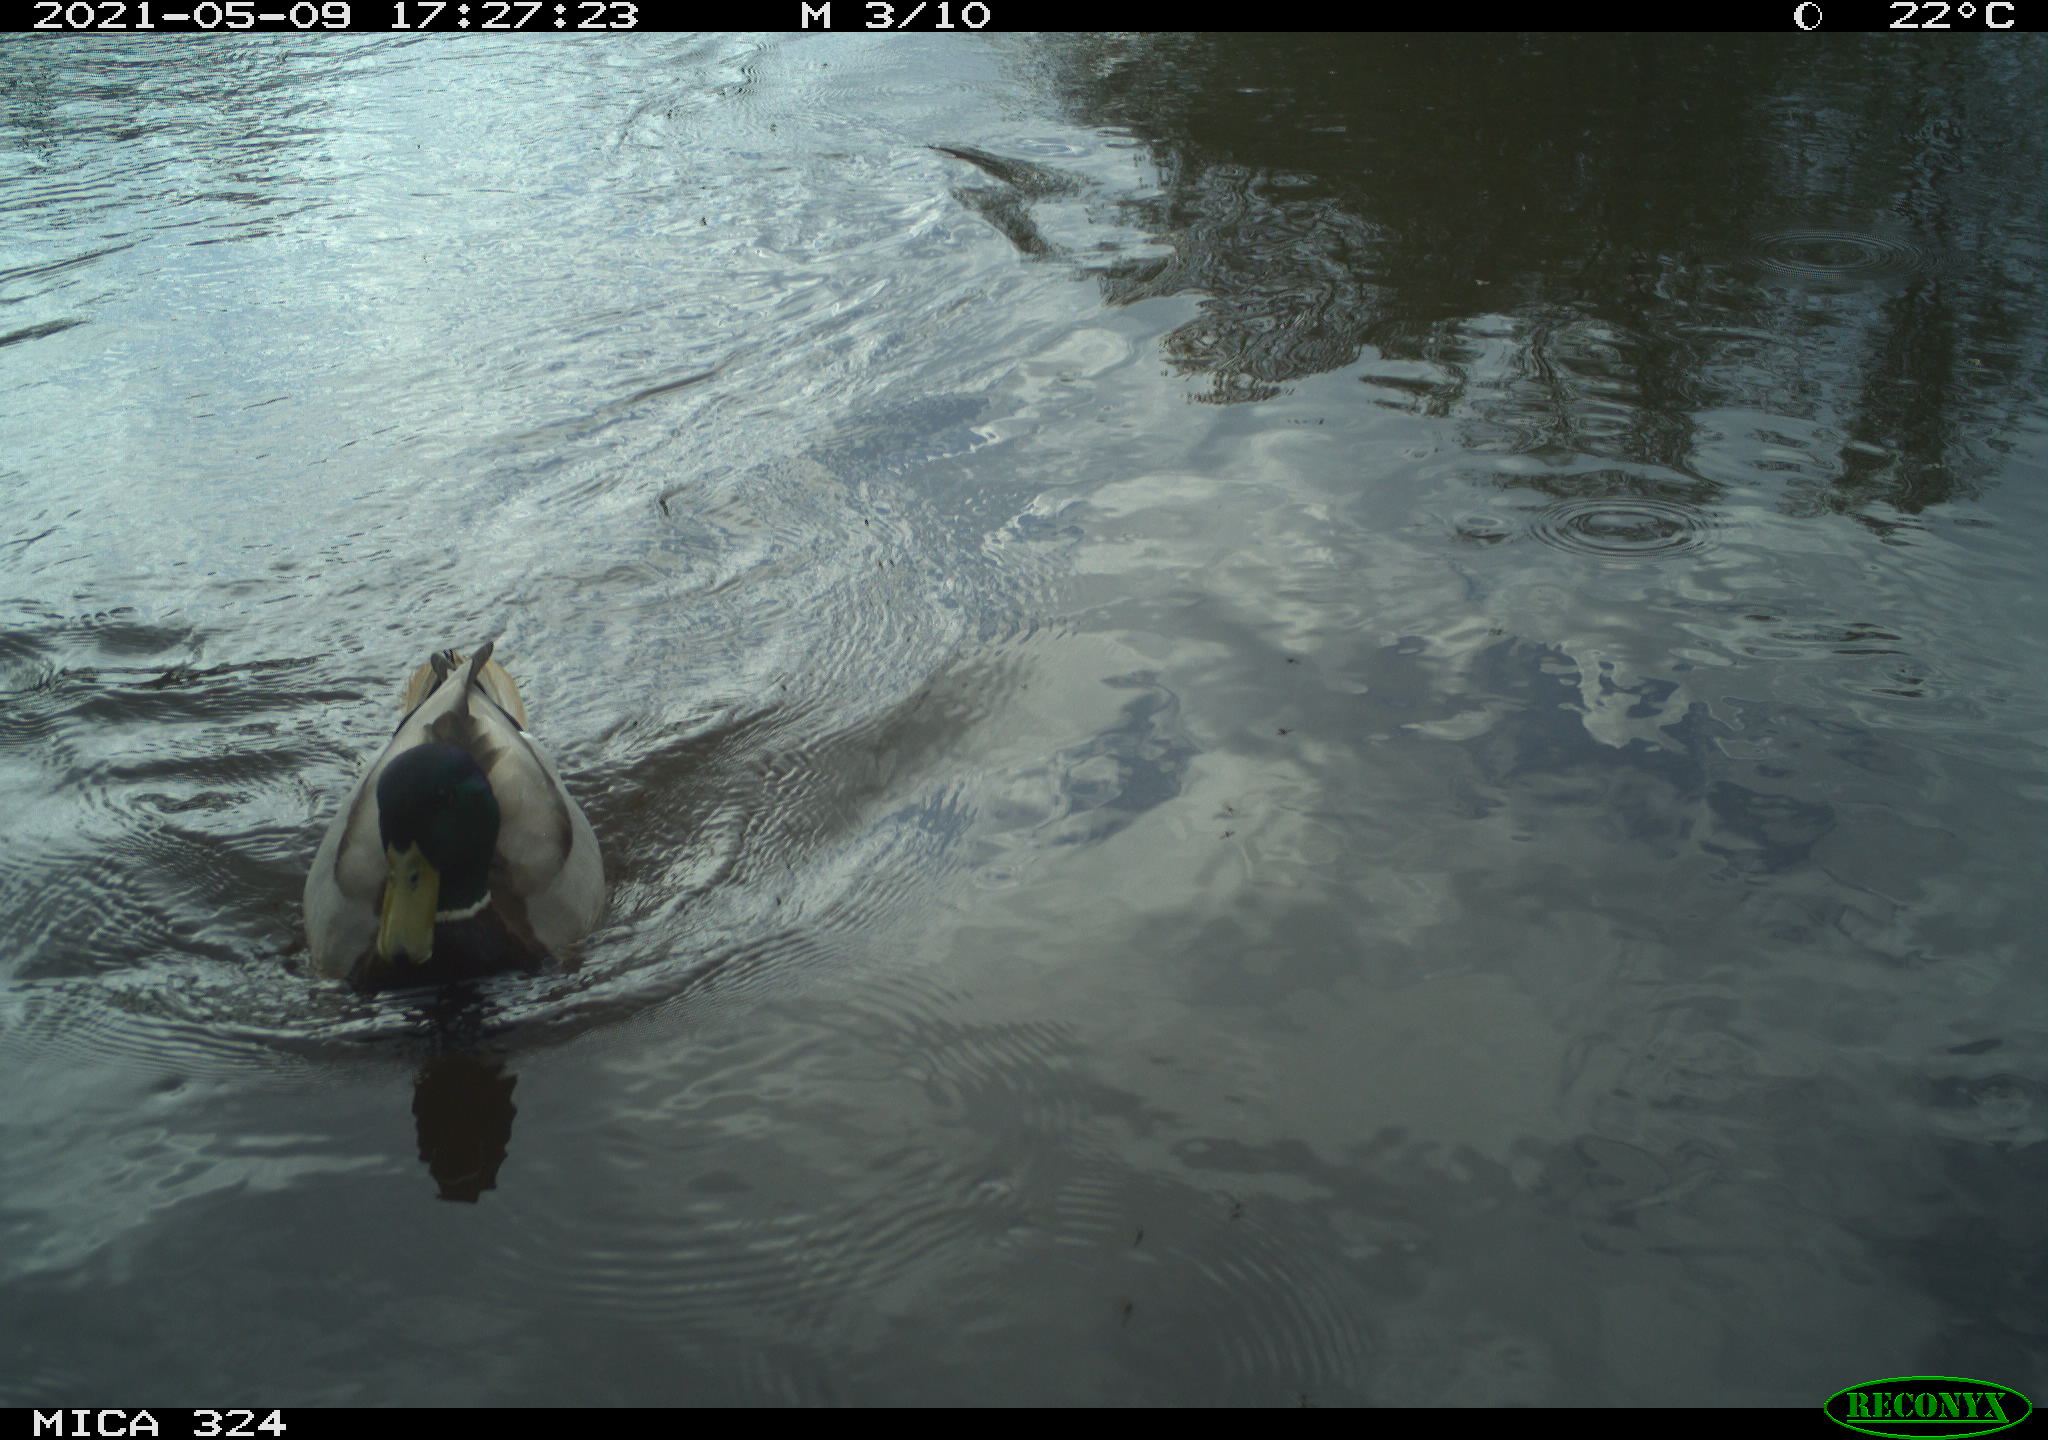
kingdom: Animalia
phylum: Chordata
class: Aves
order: Anseriformes
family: Anatidae
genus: Anas
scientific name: Anas platyrhynchos
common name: Mallard
